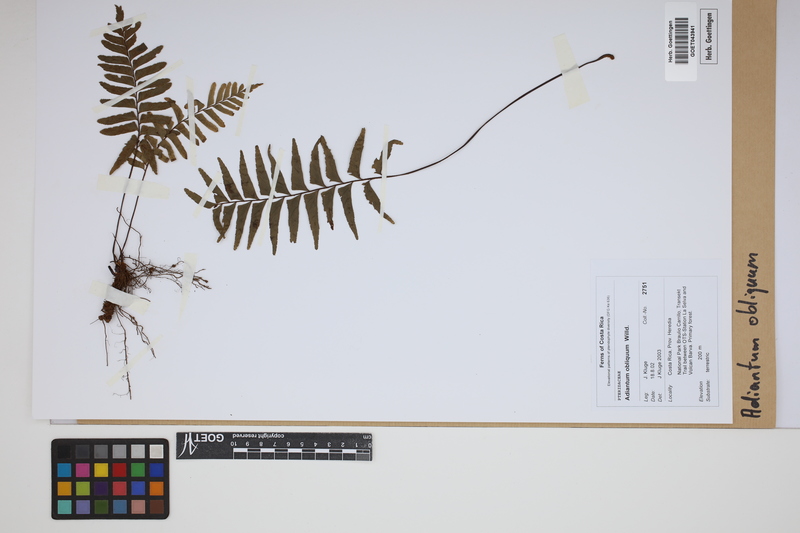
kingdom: Plantae
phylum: Tracheophyta
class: Polypodiopsida
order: Polypodiales
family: Pteridaceae
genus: Adiantum
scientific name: Adiantum obliquum
